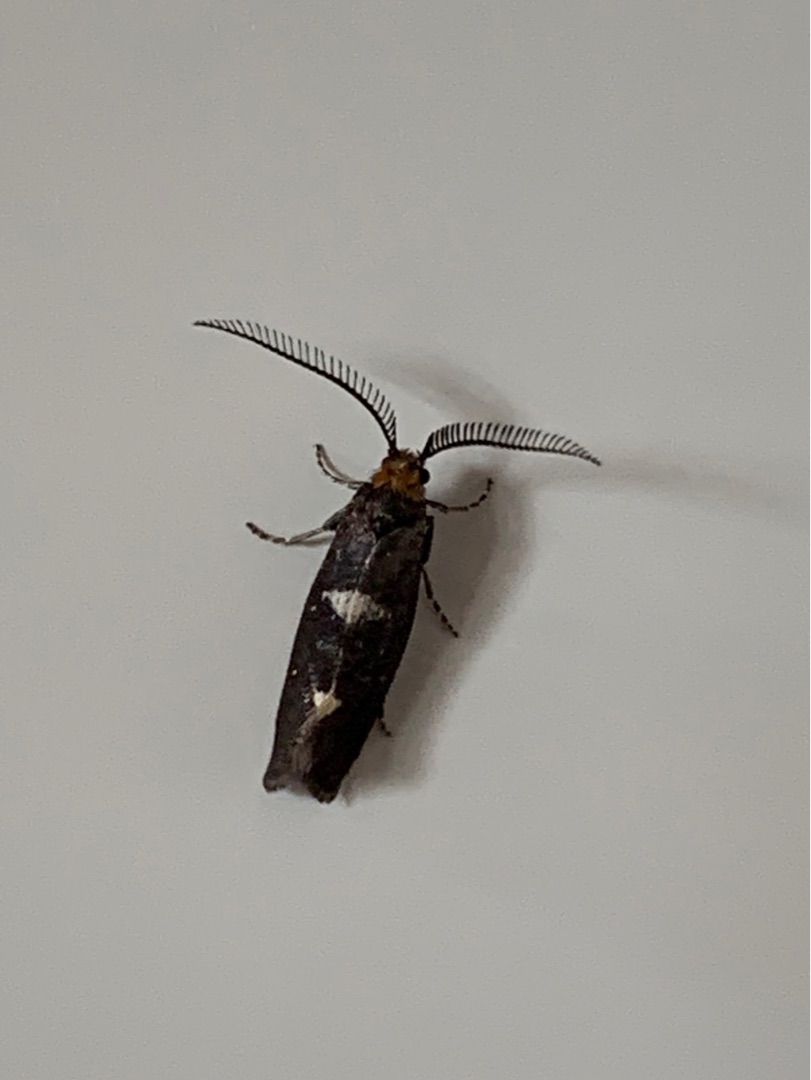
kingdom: Animalia
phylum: Arthropoda
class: Insecta
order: Lepidoptera
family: Incurvariidae
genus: Incurvaria
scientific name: Incurvaria masculella
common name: Mørkt nøjsomt møl
